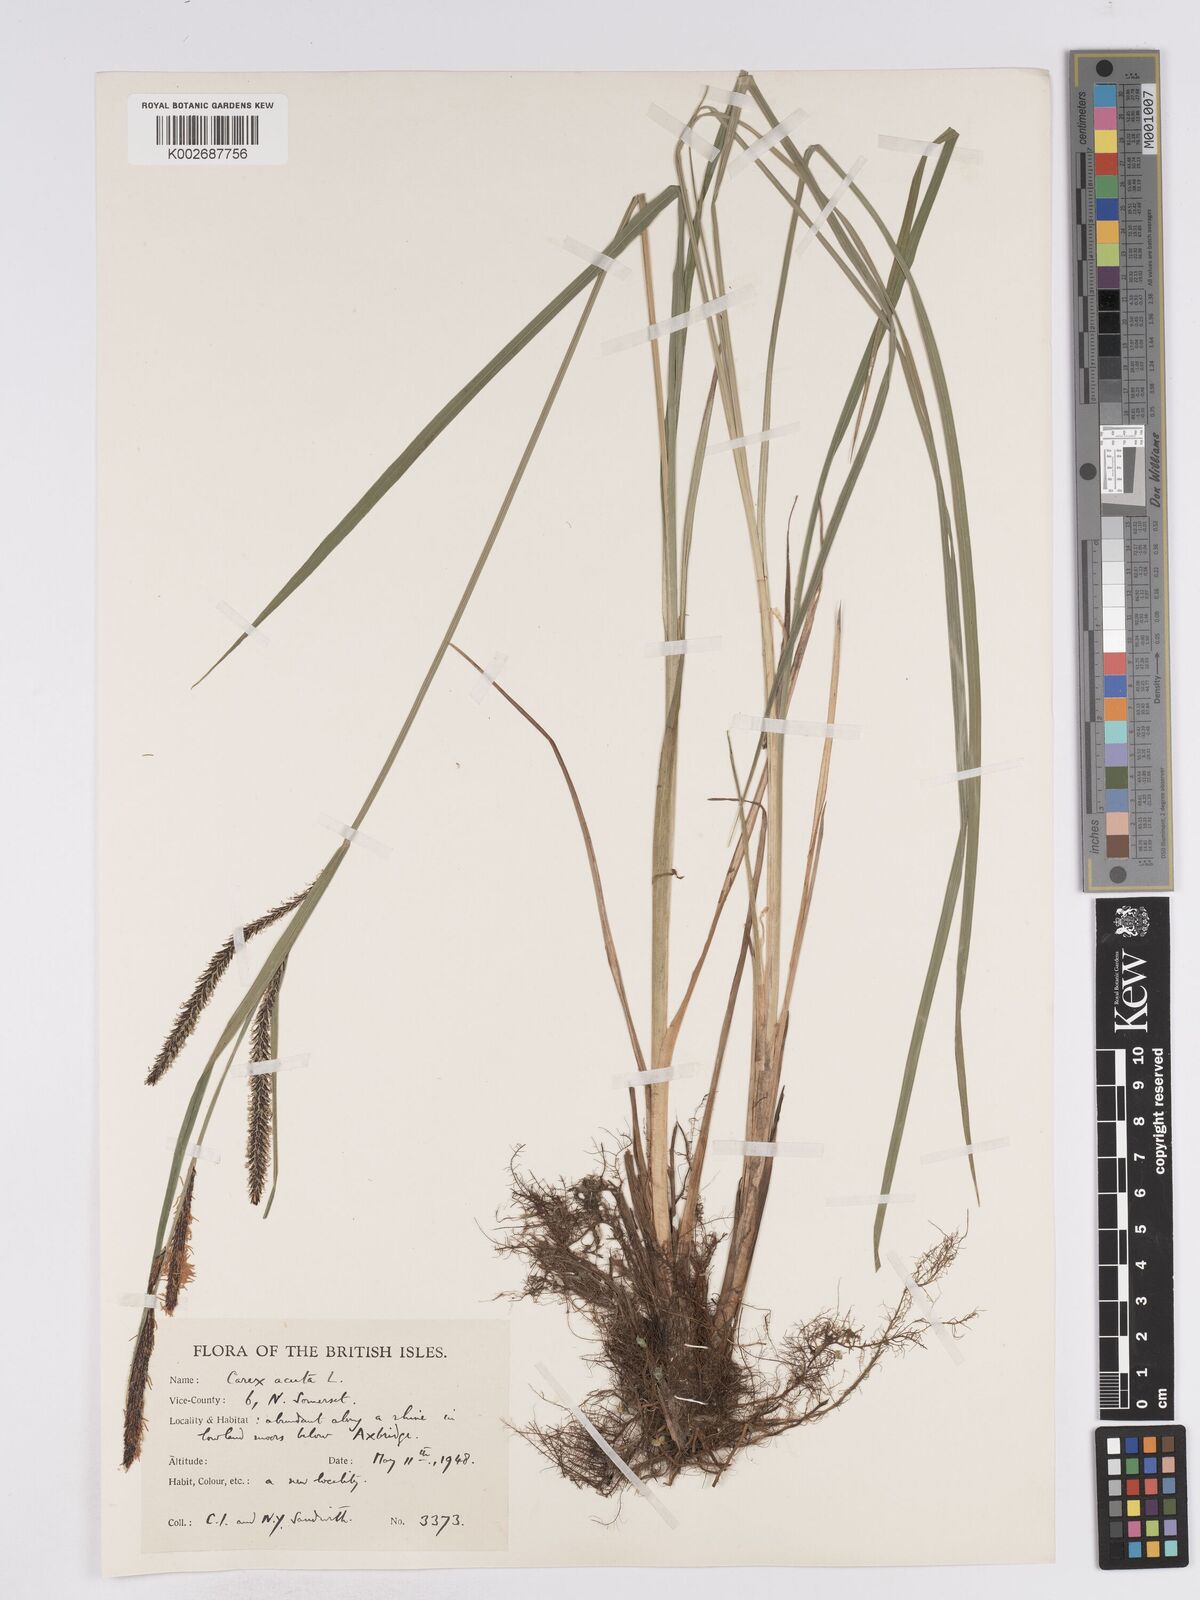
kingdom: Plantae
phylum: Tracheophyta
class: Liliopsida
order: Poales
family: Cyperaceae
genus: Carex
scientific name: Carex acuta
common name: Slender tufted-sedge
